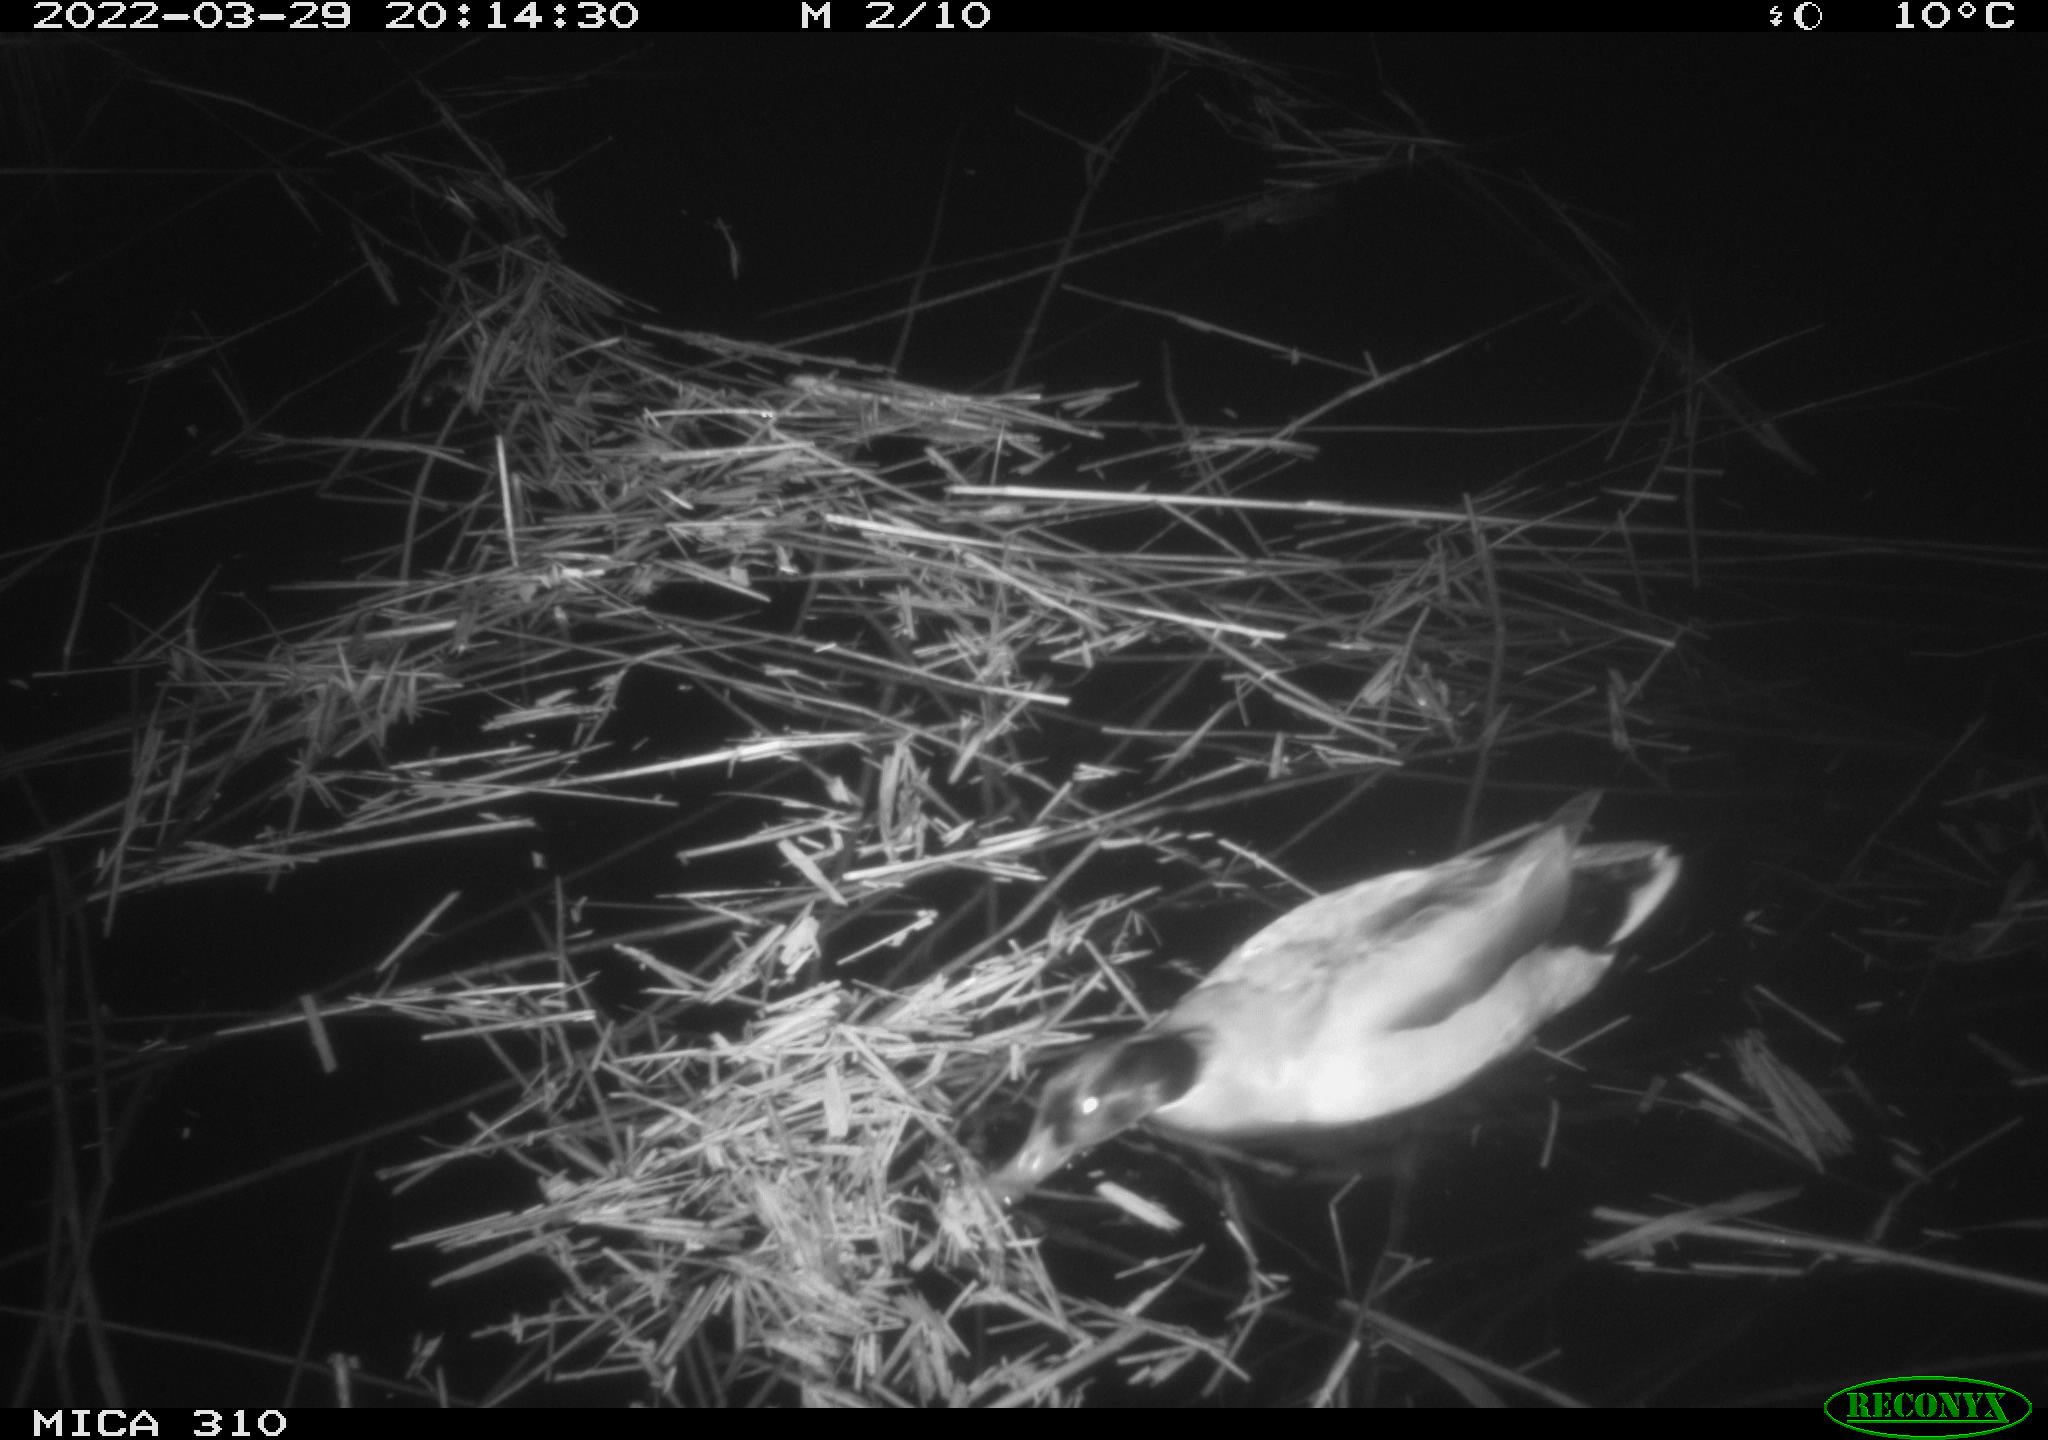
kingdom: Animalia
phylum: Chordata
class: Aves
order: Anseriformes
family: Anatidae
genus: Anas
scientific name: Anas platyrhynchos
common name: Mallard
